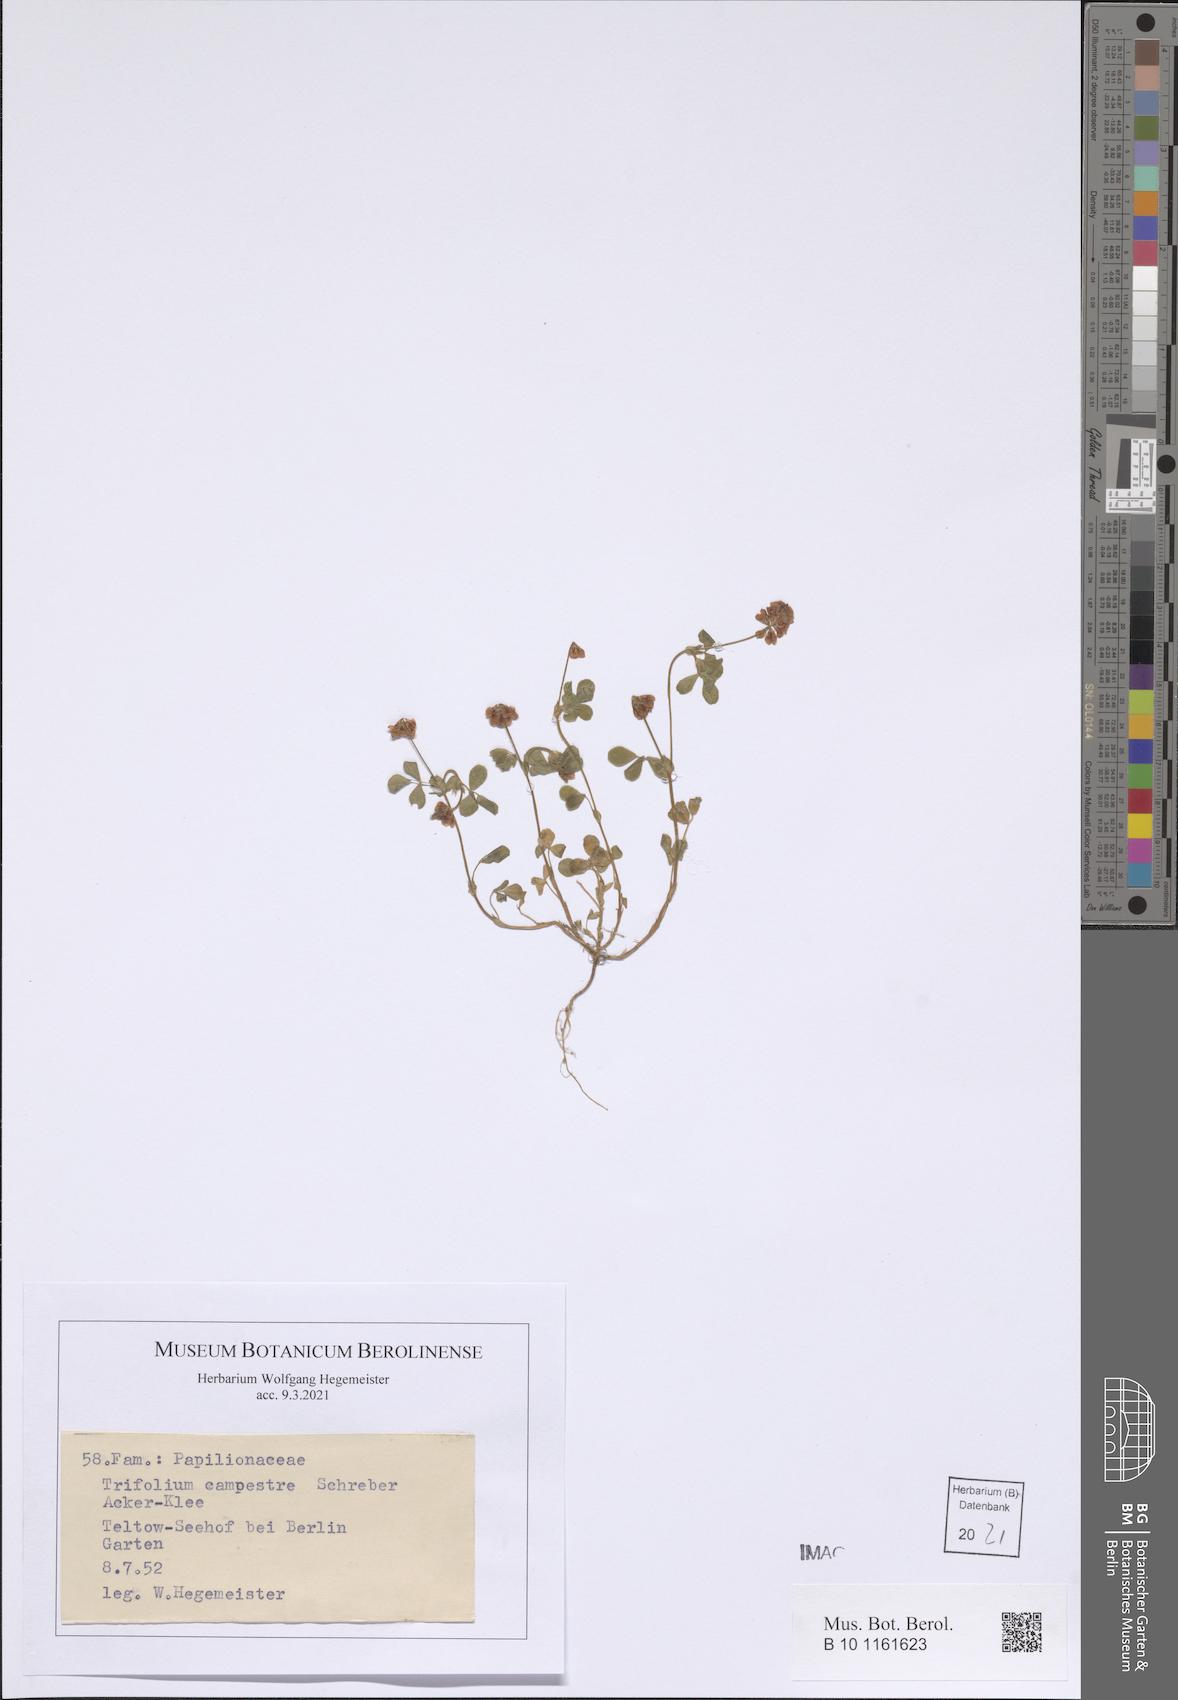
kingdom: Plantae
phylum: Tracheophyta
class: Magnoliopsida
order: Fabales
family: Fabaceae
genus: Trifolium
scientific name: Trifolium campestre
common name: Field clover
